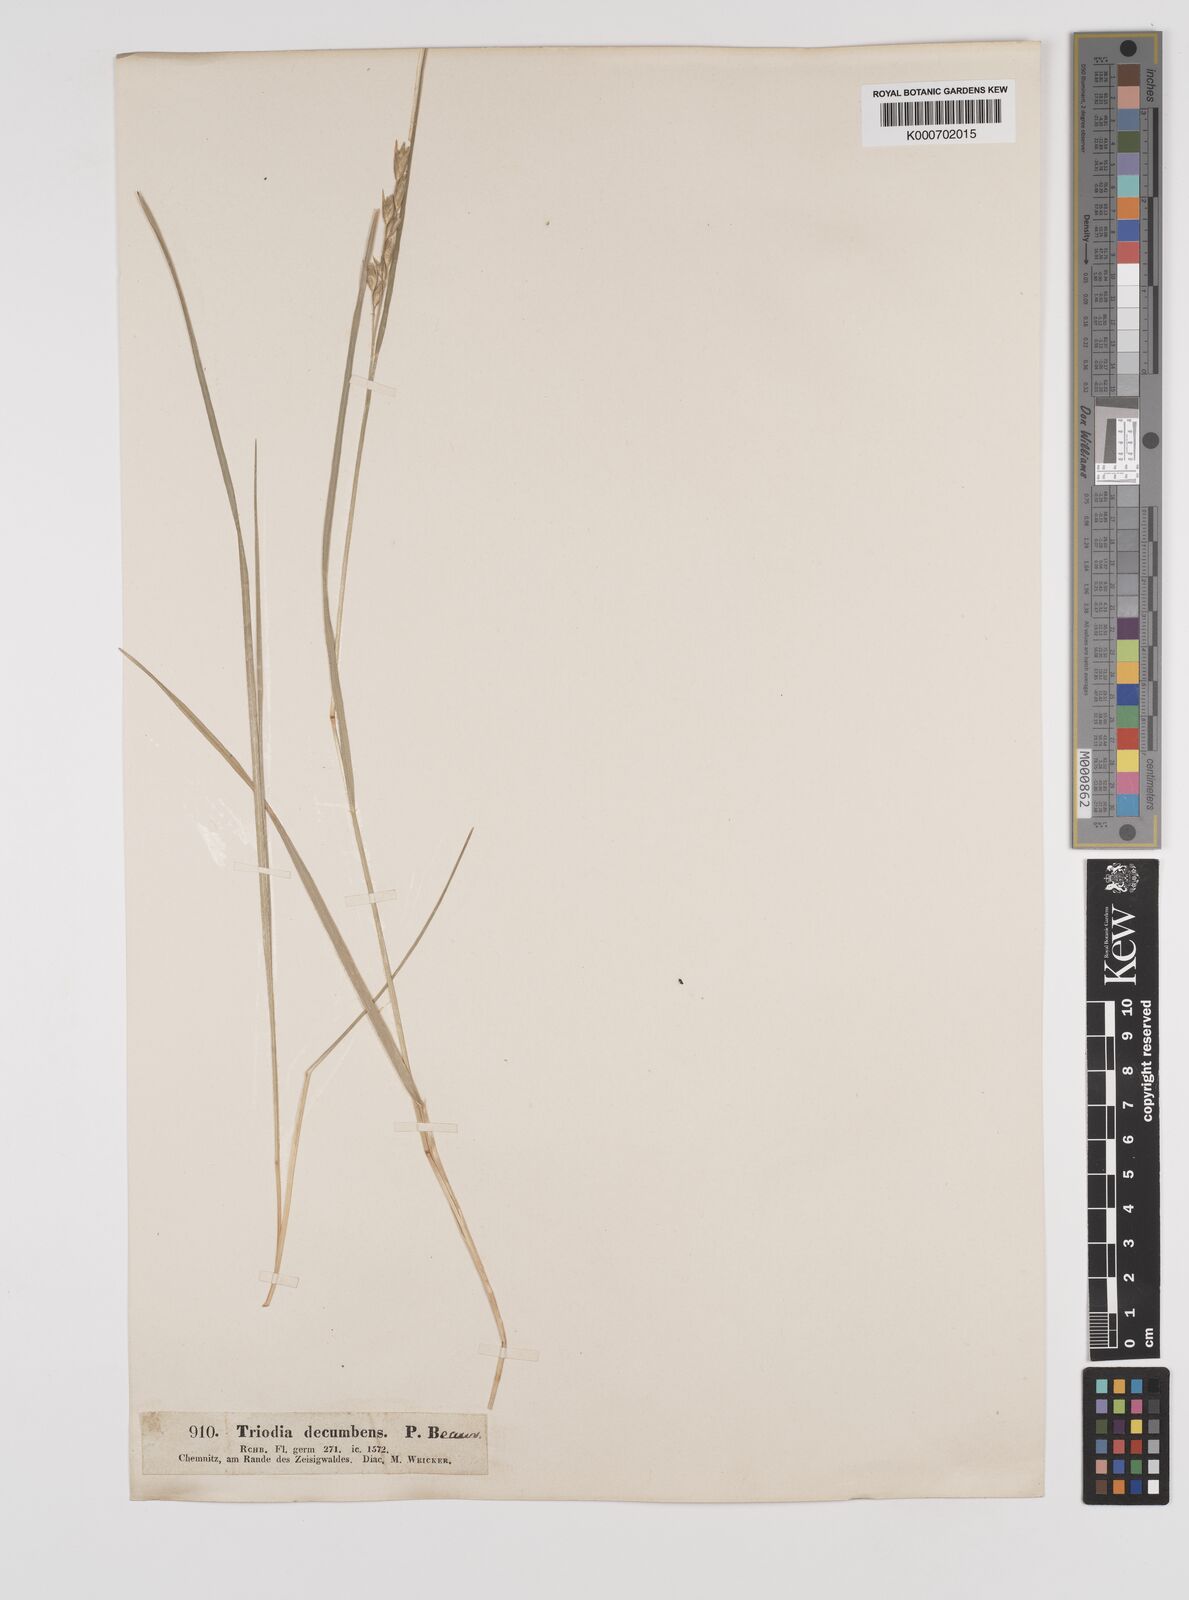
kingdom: Plantae
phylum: Tracheophyta
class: Liliopsida
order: Poales
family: Poaceae
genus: Danthonia
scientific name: Danthonia decumbens
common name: Common heathgrass
